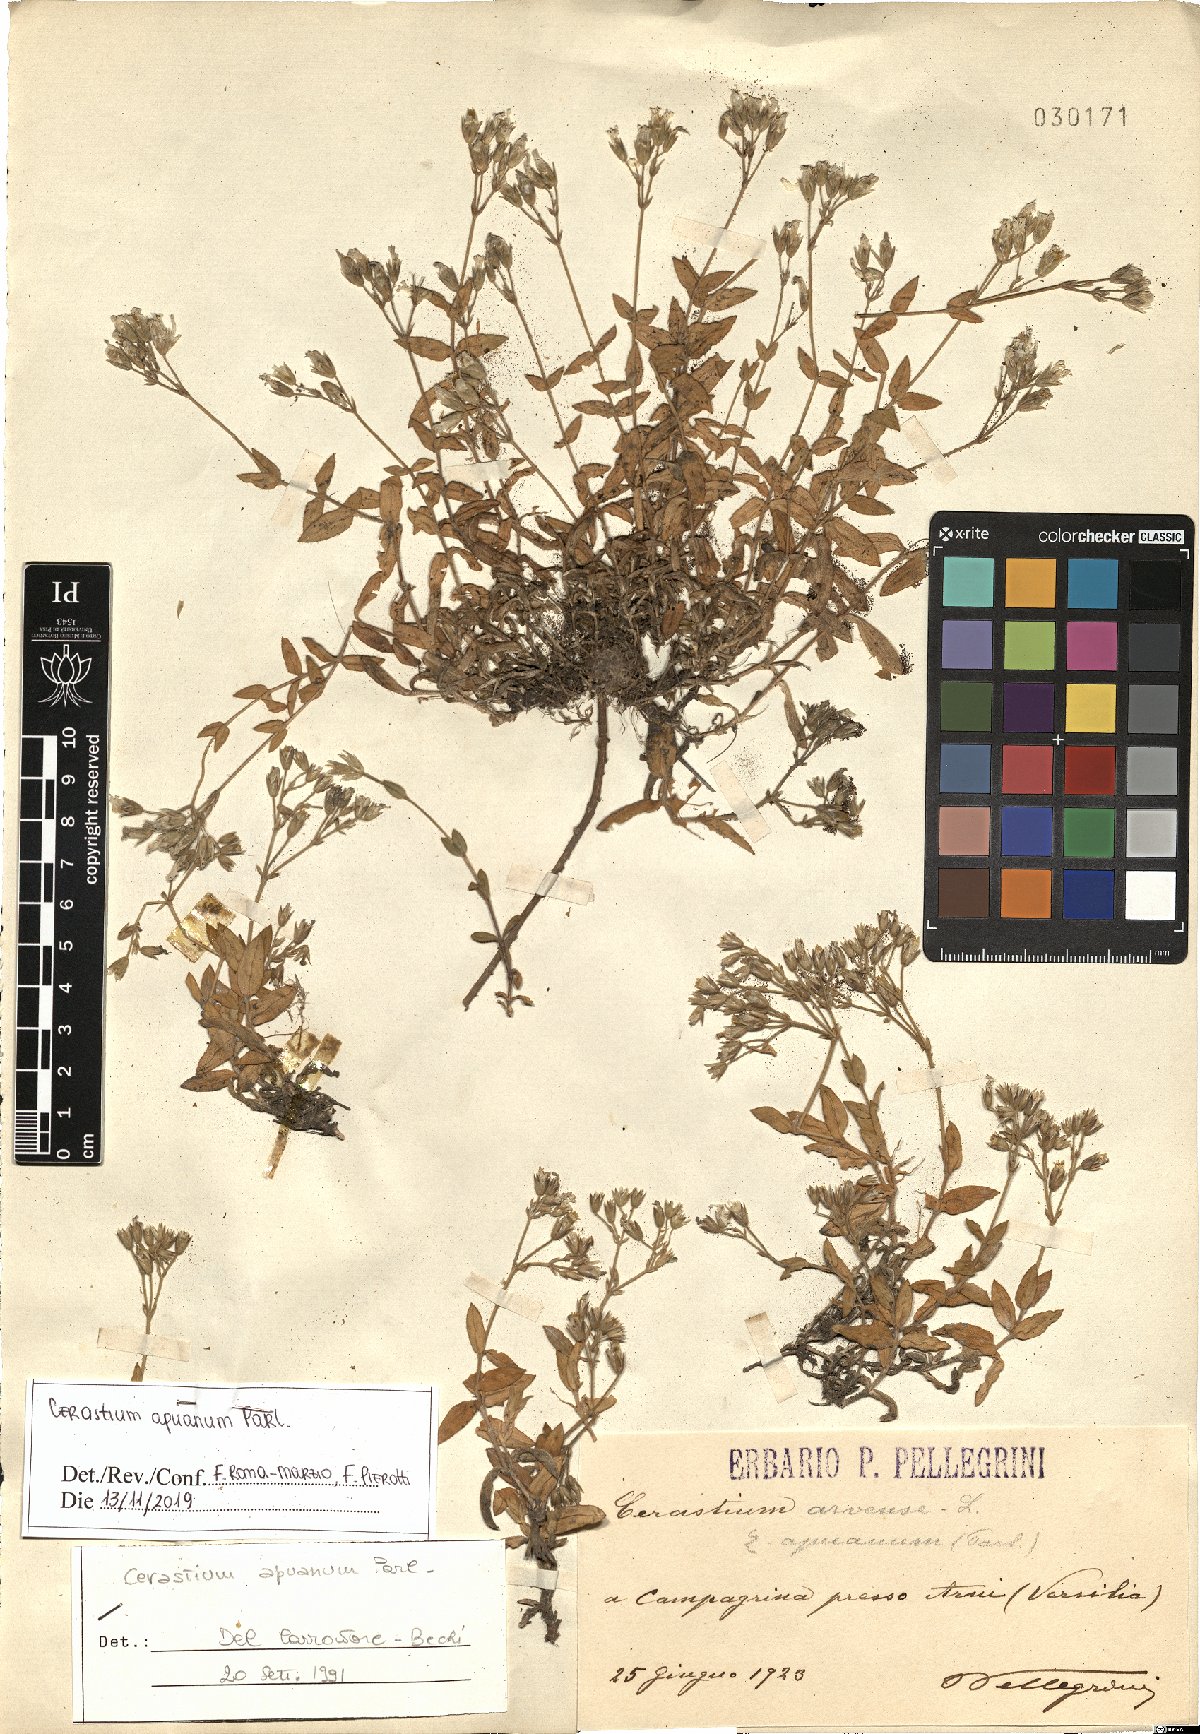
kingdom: Plantae
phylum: Tracheophyta
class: Magnoliopsida
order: Caryophyllales
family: Caryophyllaceae
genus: Cerastium
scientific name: Cerastium scaranii
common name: Italian mouse-ear
